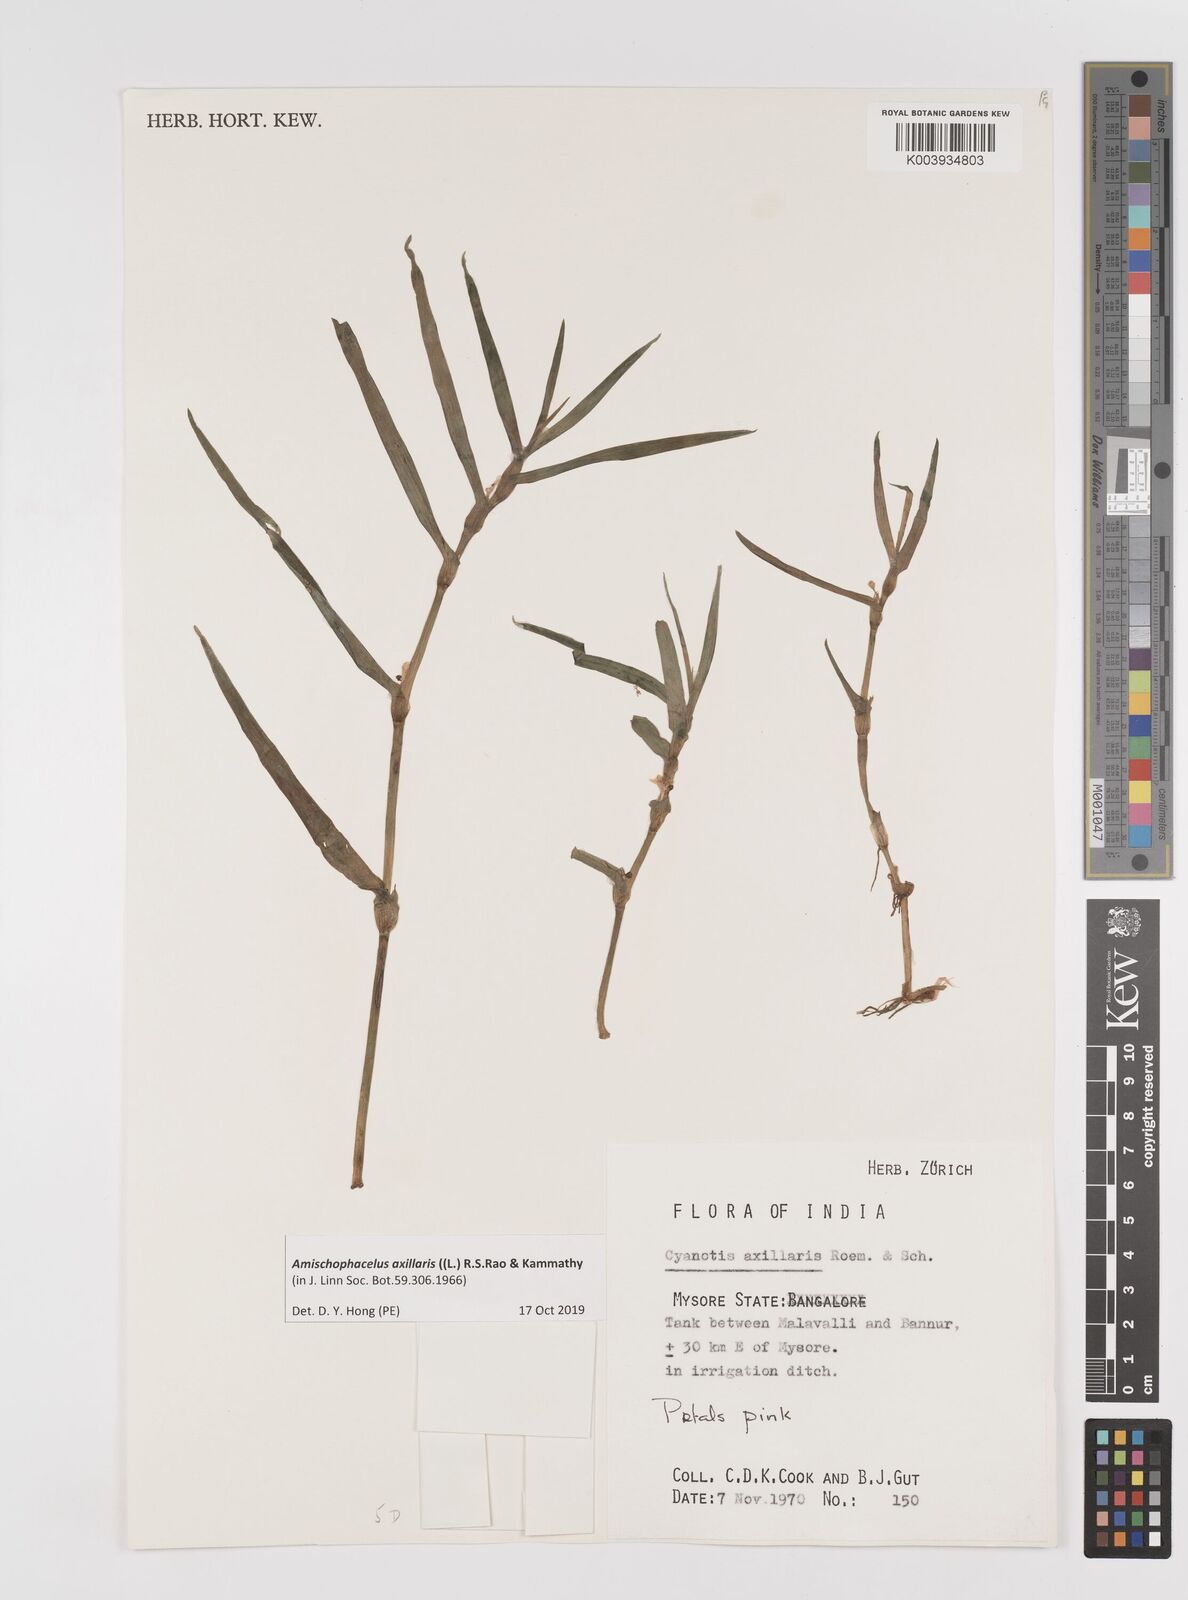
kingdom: Plantae
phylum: Tracheophyta
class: Liliopsida
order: Commelinales
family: Commelinaceae
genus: Cyanotis
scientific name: Cyanotis axillaris
